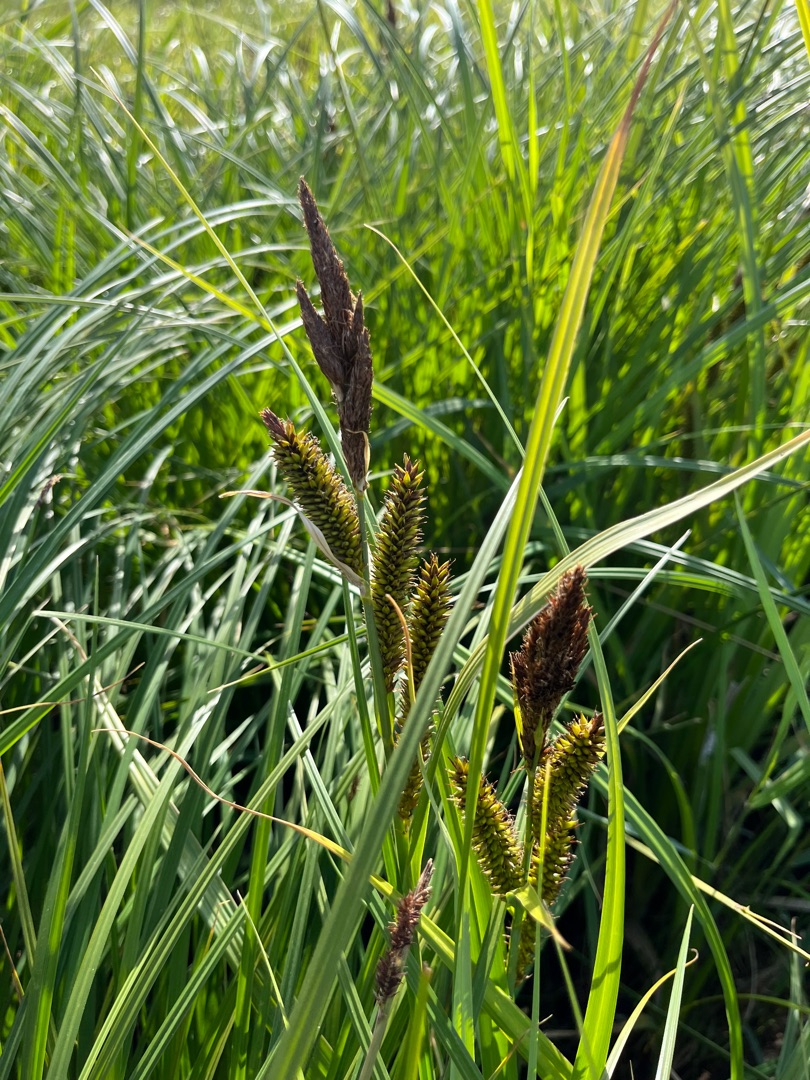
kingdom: Plantae
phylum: Tracheophyta
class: Liliopsida
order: Poales
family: Cyperaceae
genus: Carex
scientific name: Carex riparia
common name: Tykakset star
